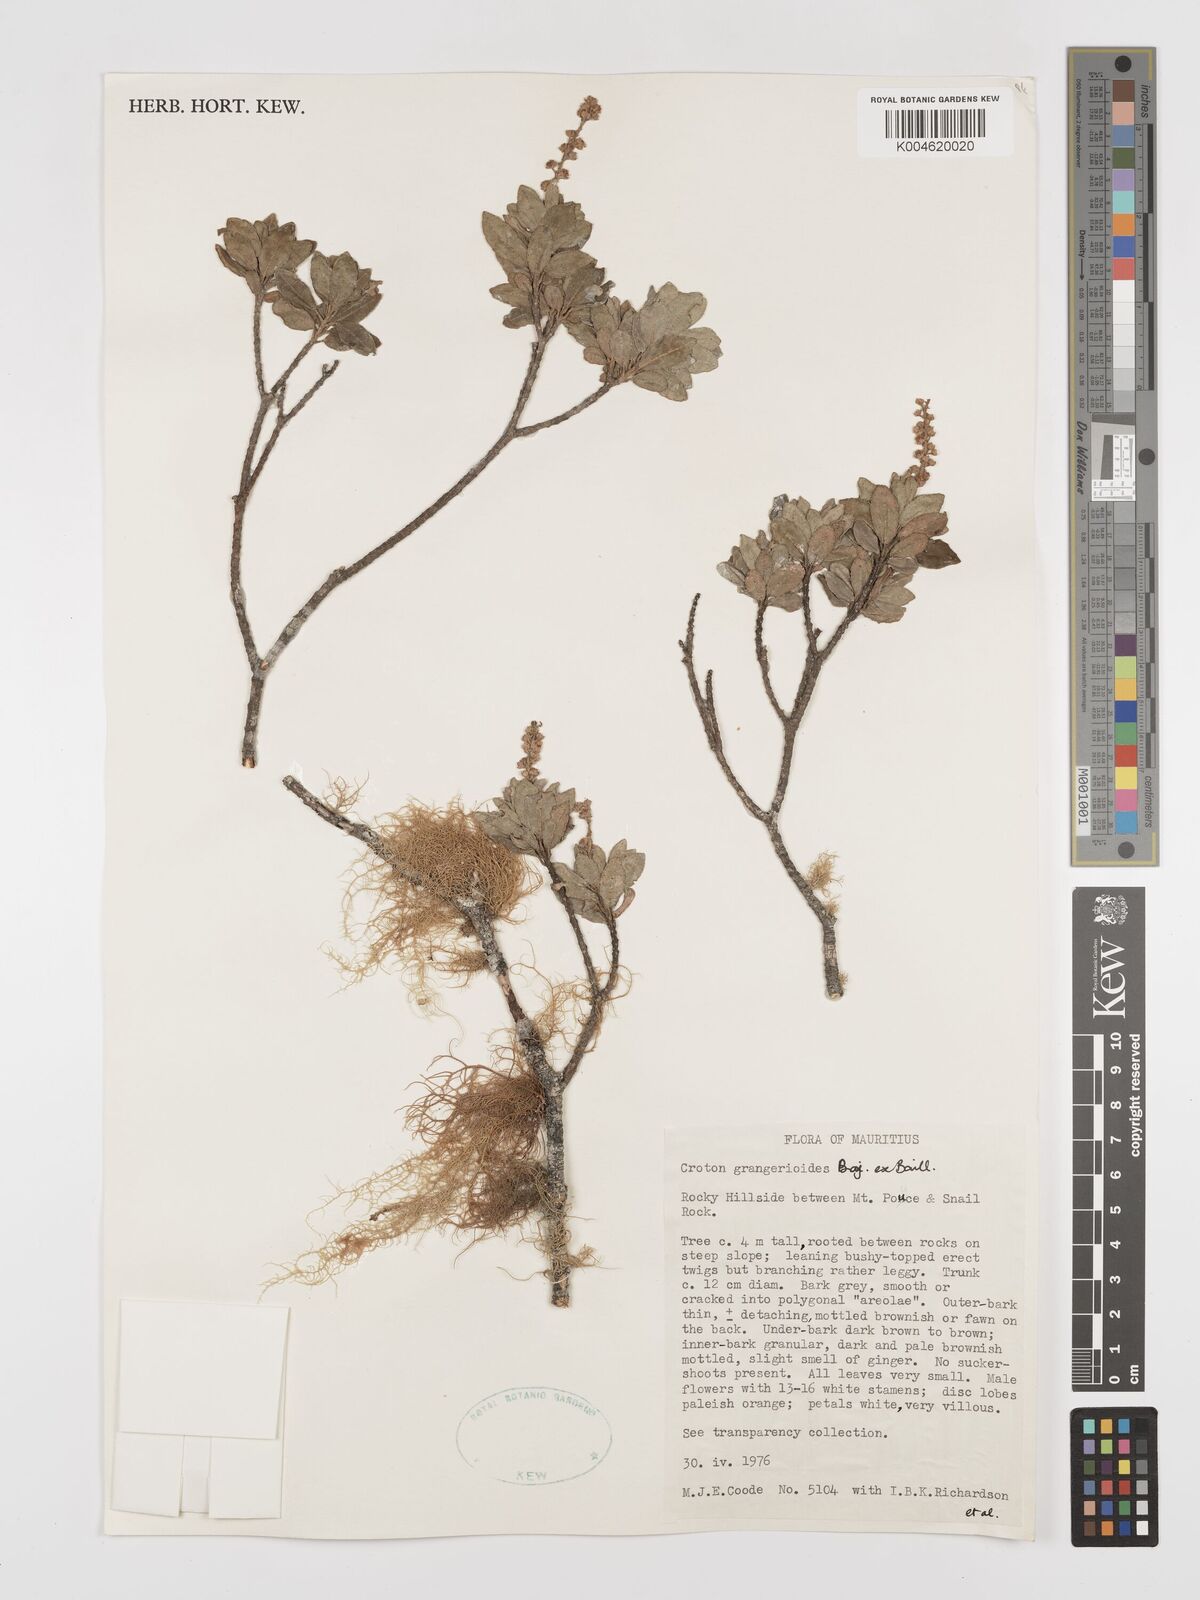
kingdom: Plantae
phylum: Tracheophyta
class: Magnoliopsida
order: Malpighiales
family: Euphorbiaceae
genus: Croton
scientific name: Croton grangerioides
